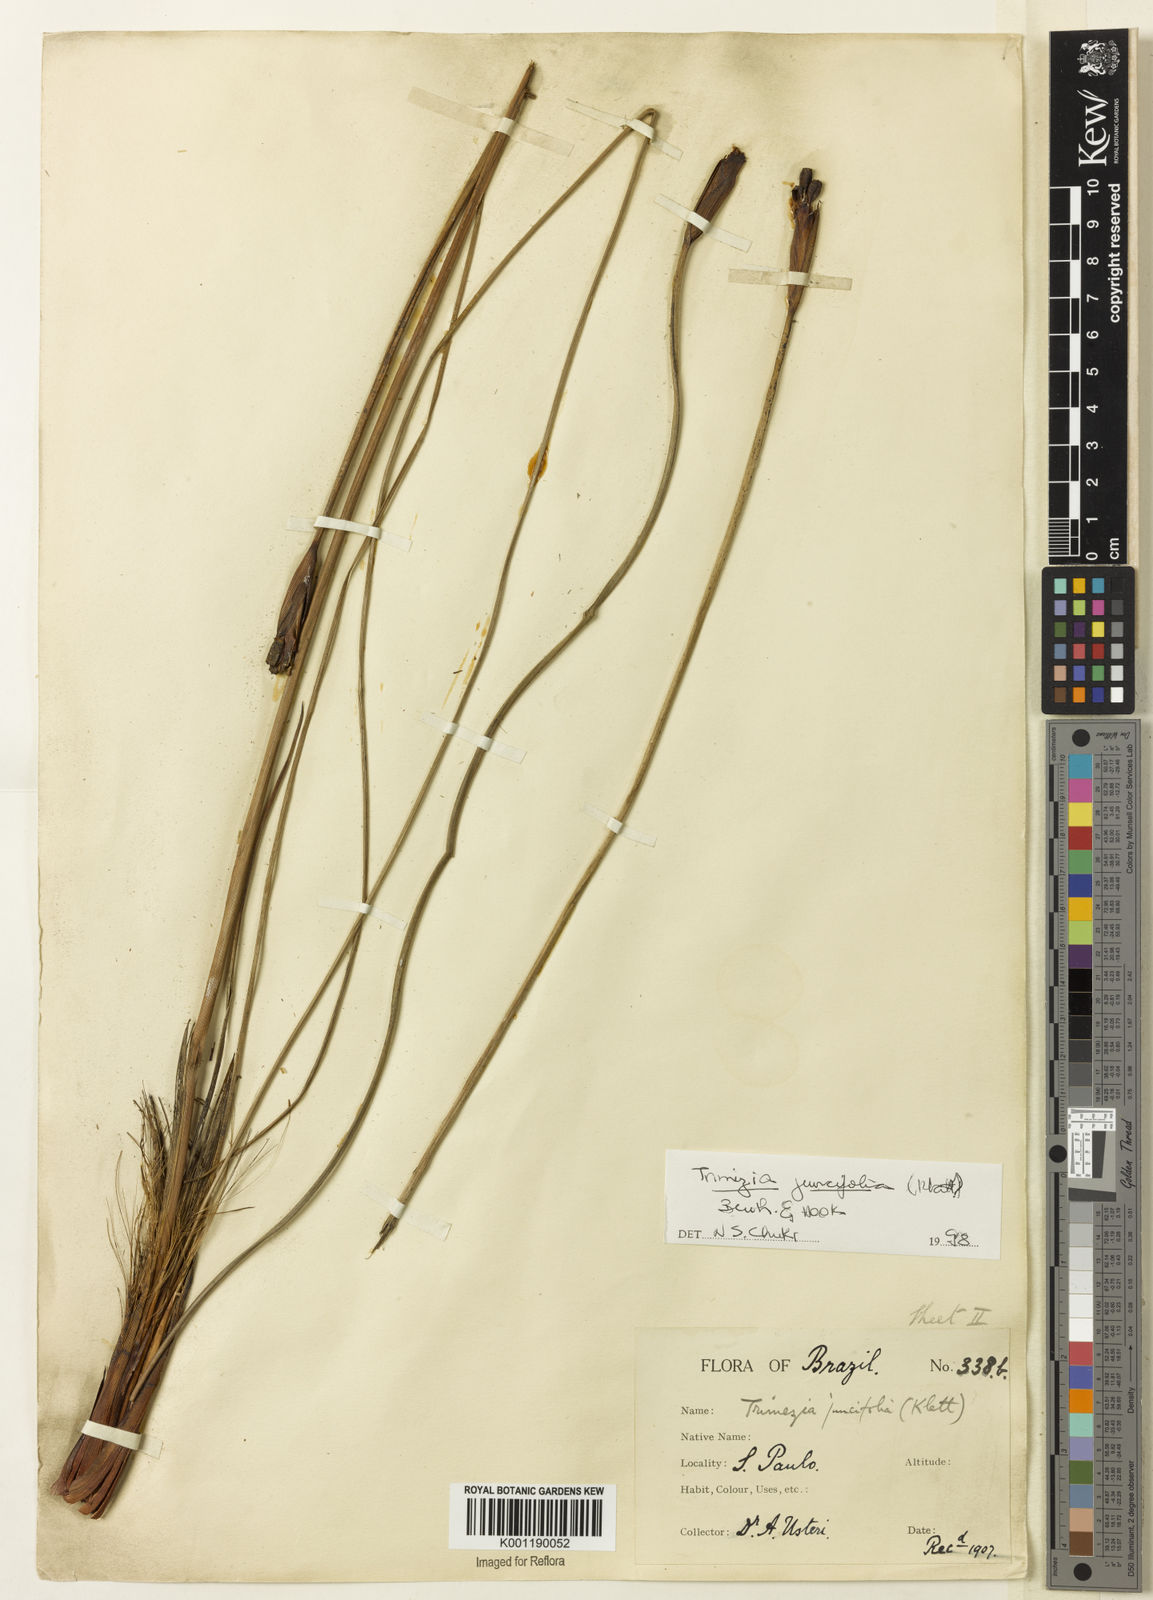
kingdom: Plantae
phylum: Tracheophyta
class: Liliopsida
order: Asparagales
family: Iridaceae
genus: Trimezia
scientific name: Trimezia juncifolia
